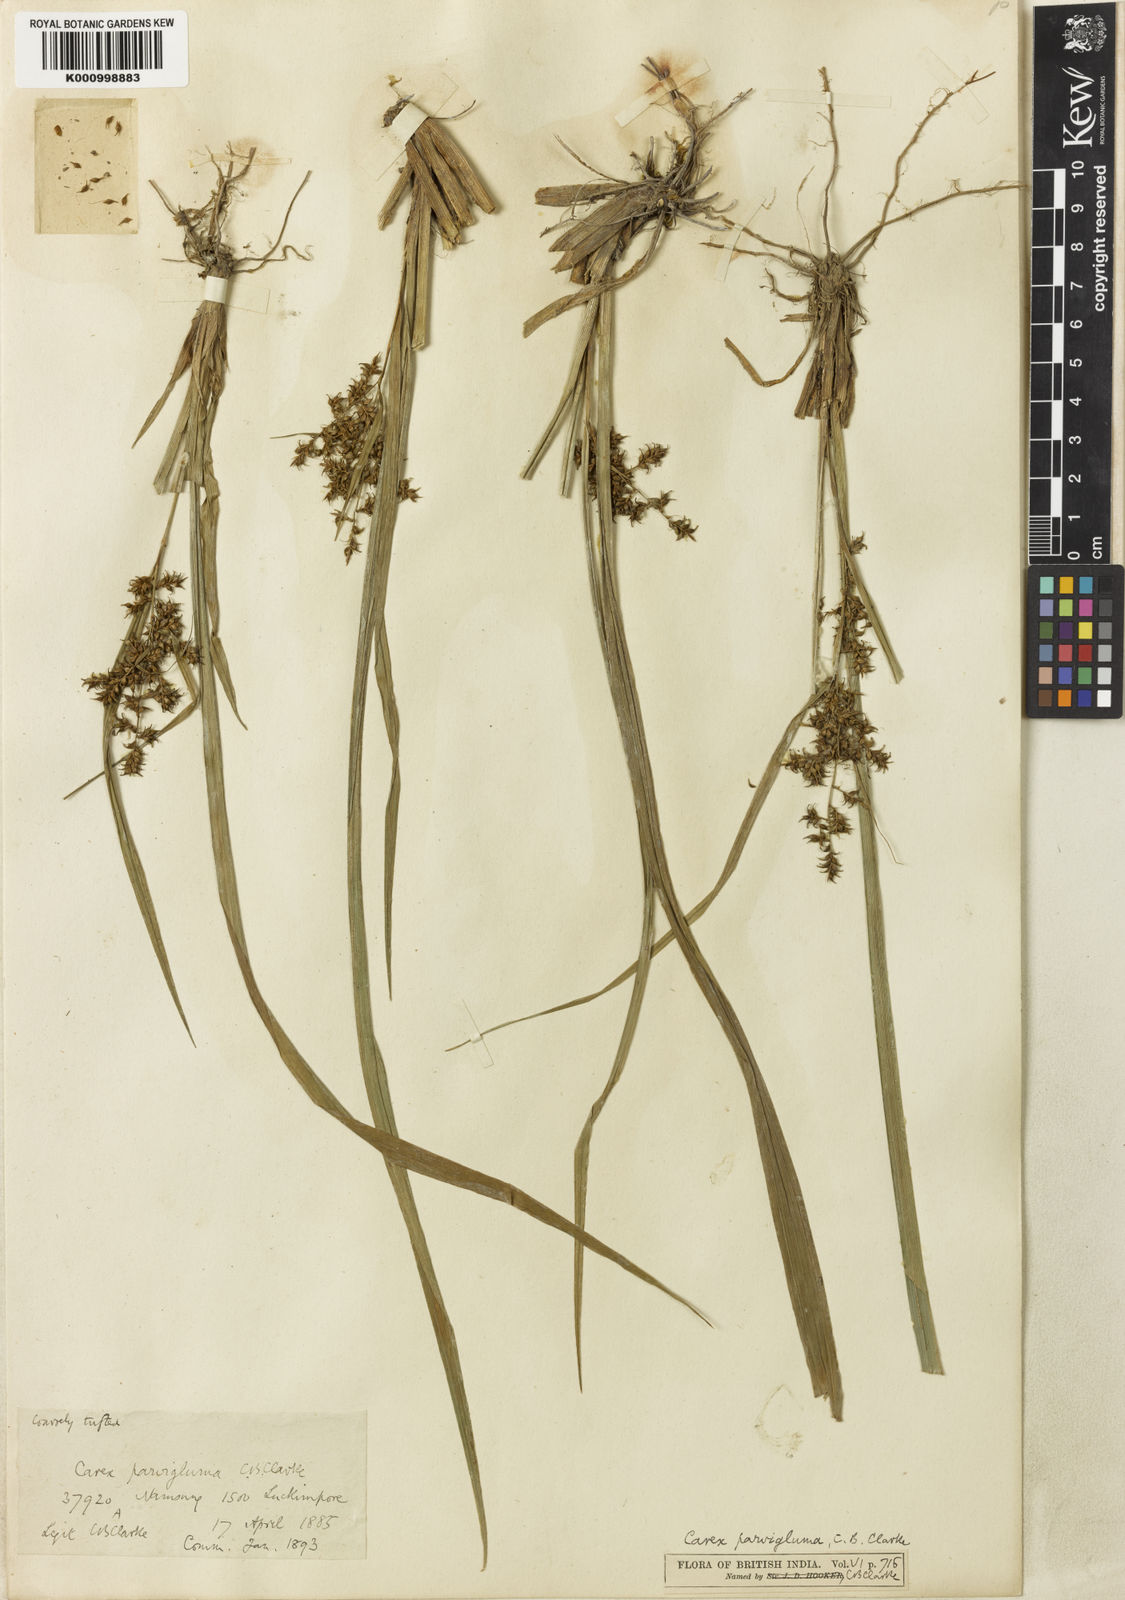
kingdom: Plantae
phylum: Tracheophyta
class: Liliopsida
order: Poales
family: Cyperaceae
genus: Carex
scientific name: Carex parvigluma
